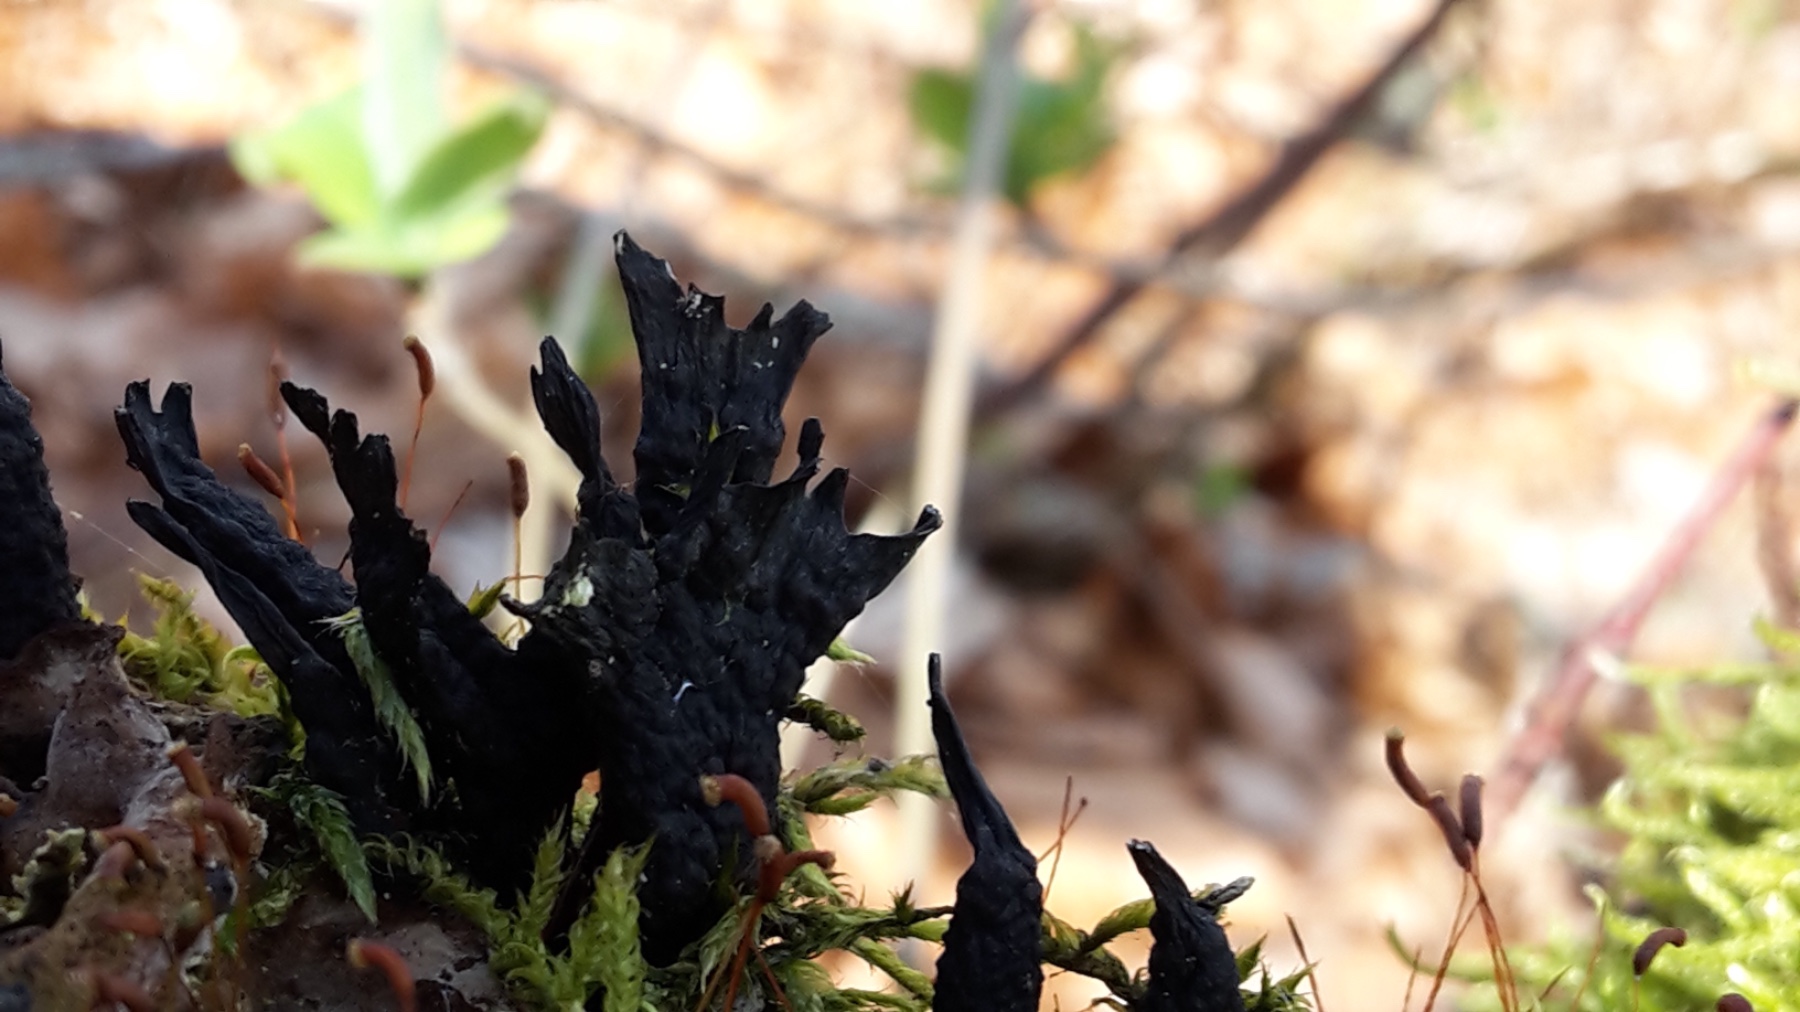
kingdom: Fungi
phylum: Ascomycota
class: Sordariomycetes
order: Xylariales
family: Xylariaceae
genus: Xylaria
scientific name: Xylaria hypoxylon
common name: grenet stødsvamp
